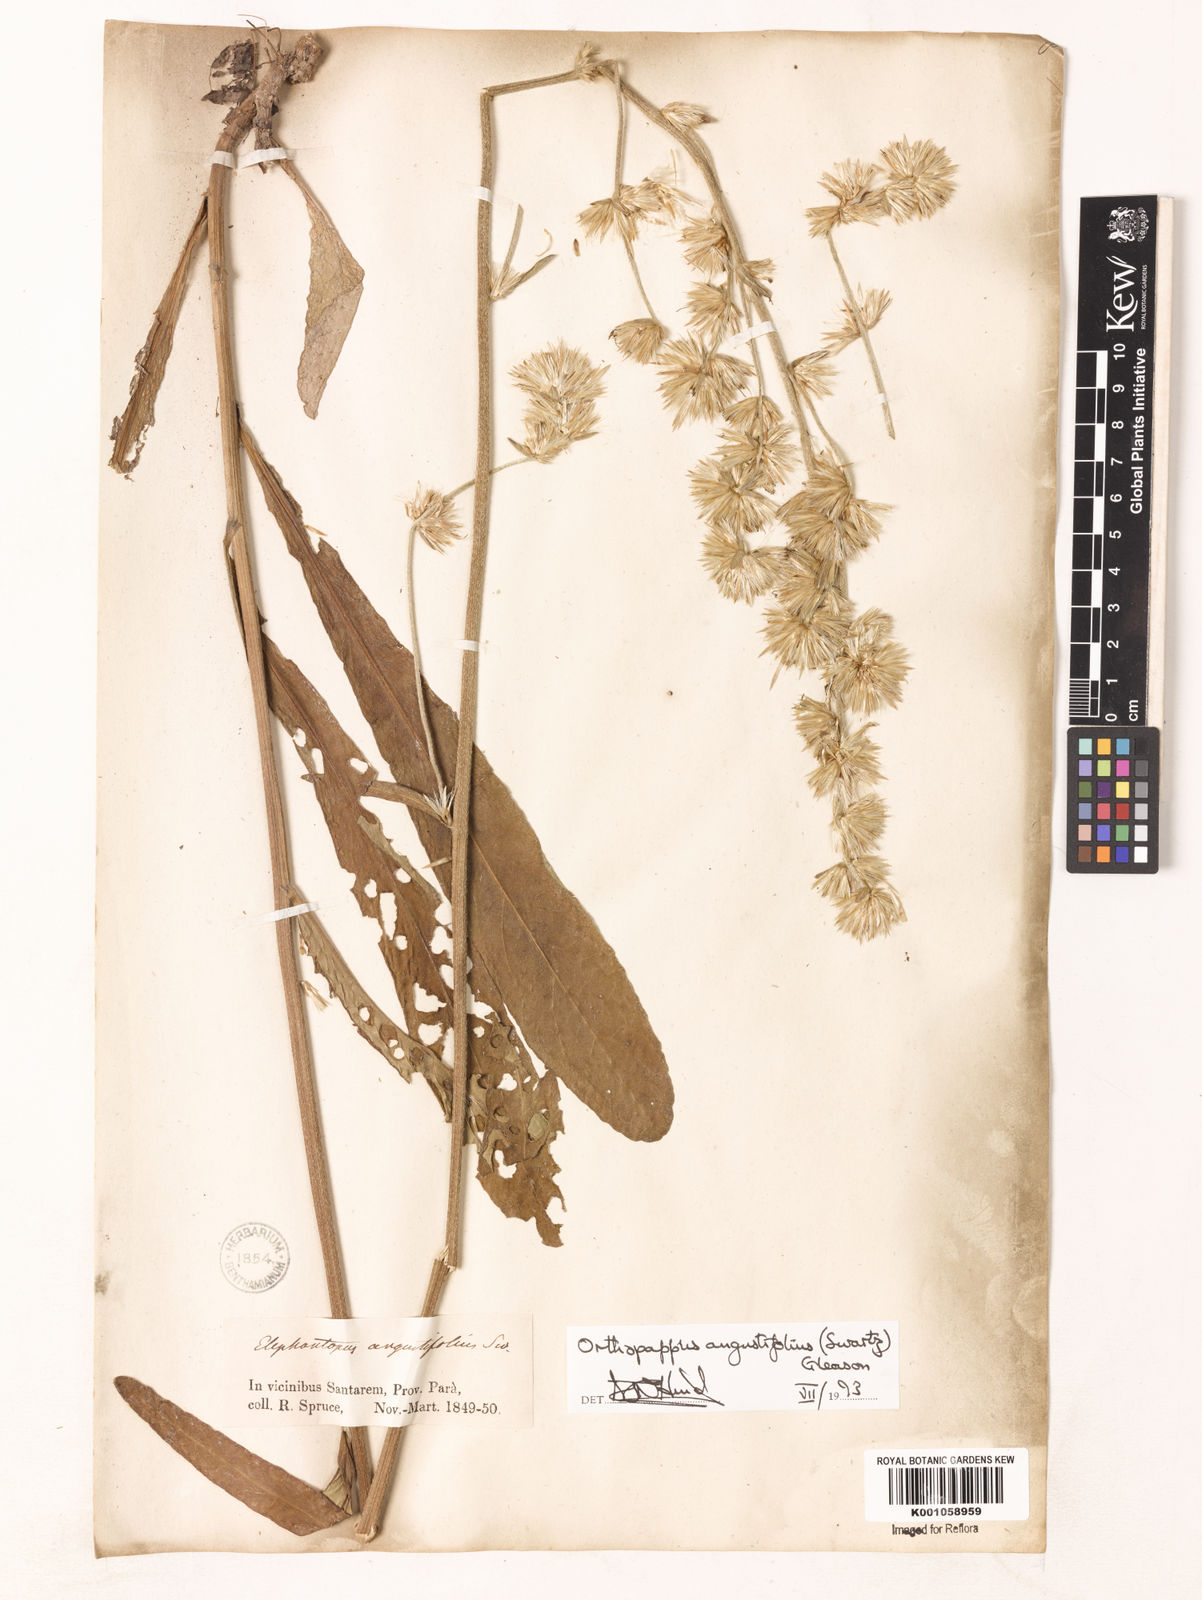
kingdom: Plantae
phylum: Tracheophyta
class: Magnoliopsida
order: Asterales
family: Asteraceae
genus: Orthopappus
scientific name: Orthopappus angustifolius
